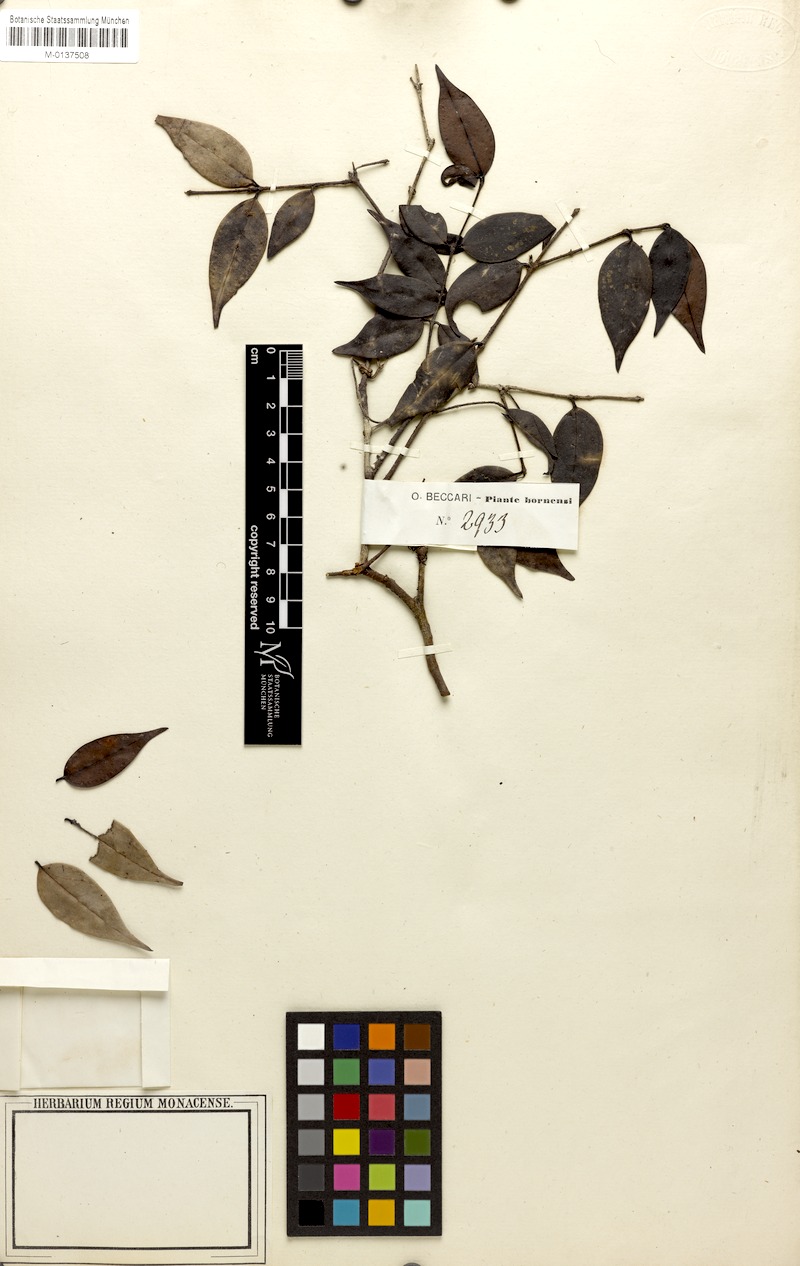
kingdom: Plantae
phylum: Tracheophyta
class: Magnoliopsida
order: Myrtales
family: Myrtaceae
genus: Uromyrtus
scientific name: Uromyrtus sarawakensis
